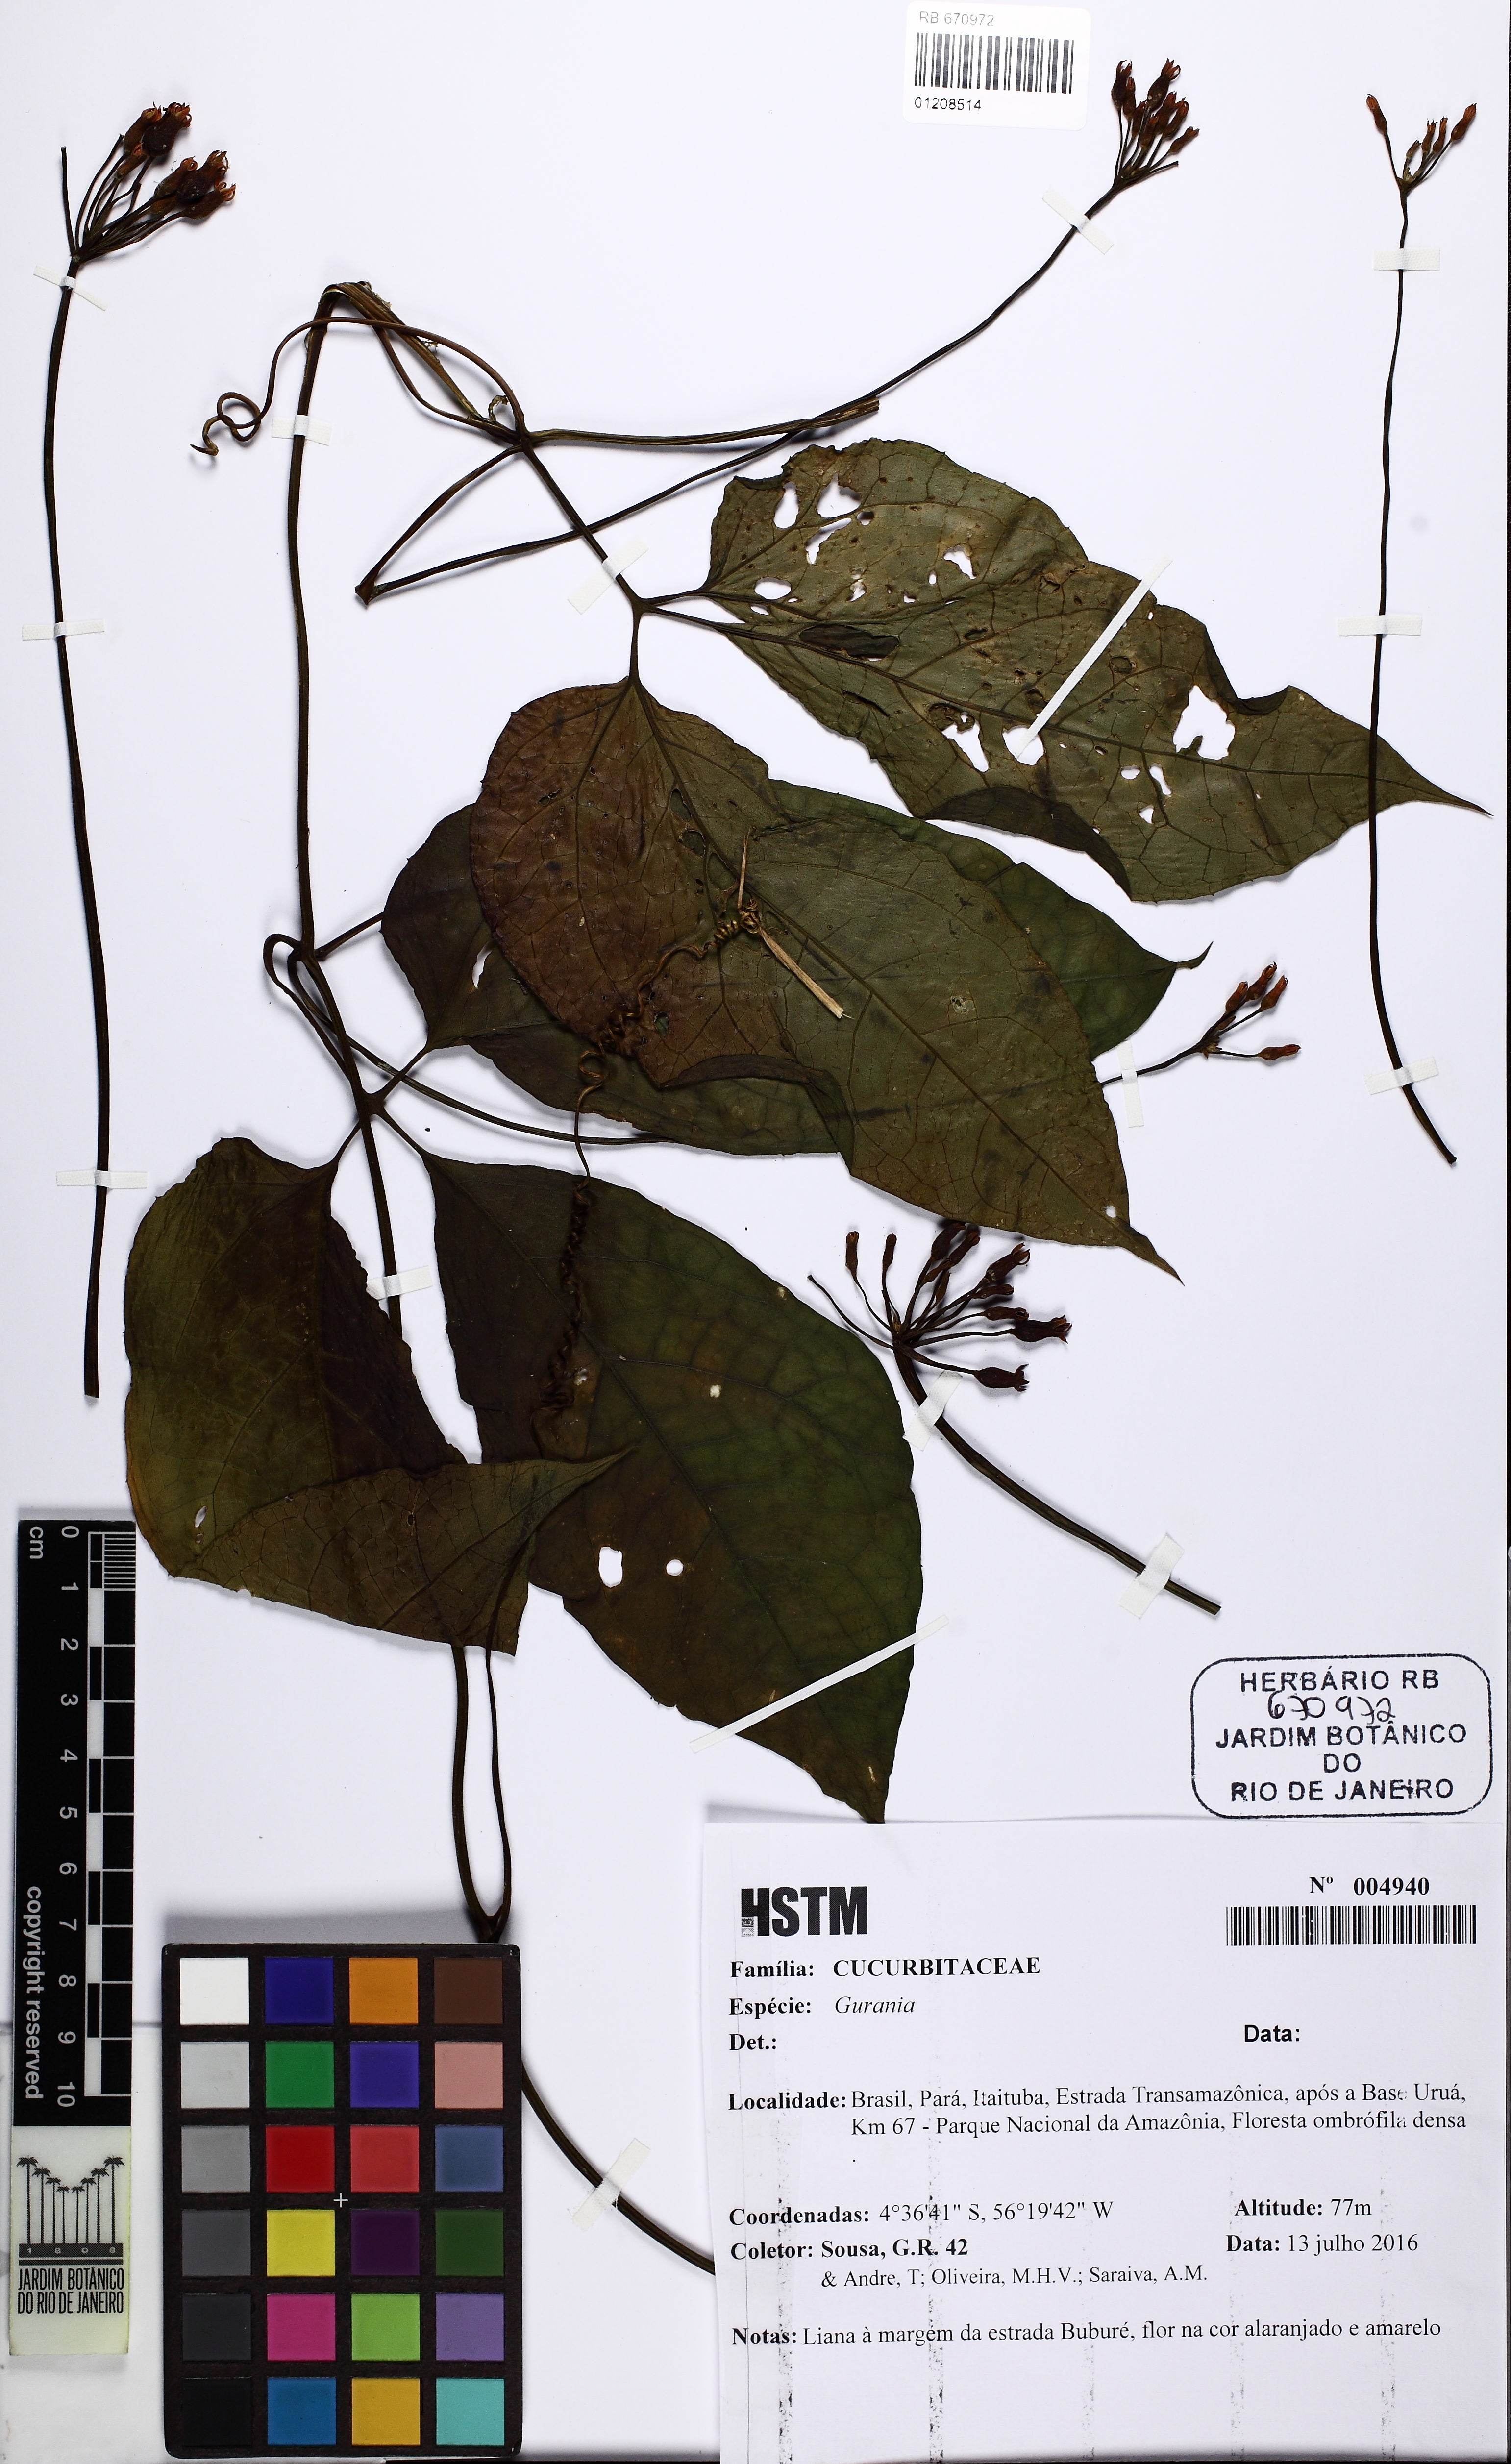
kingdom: Plantae
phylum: Tracheophyta
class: Magnoliopsida
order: Cucurbitales
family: Cucurbitaceae
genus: Gurania
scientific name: Gurania
